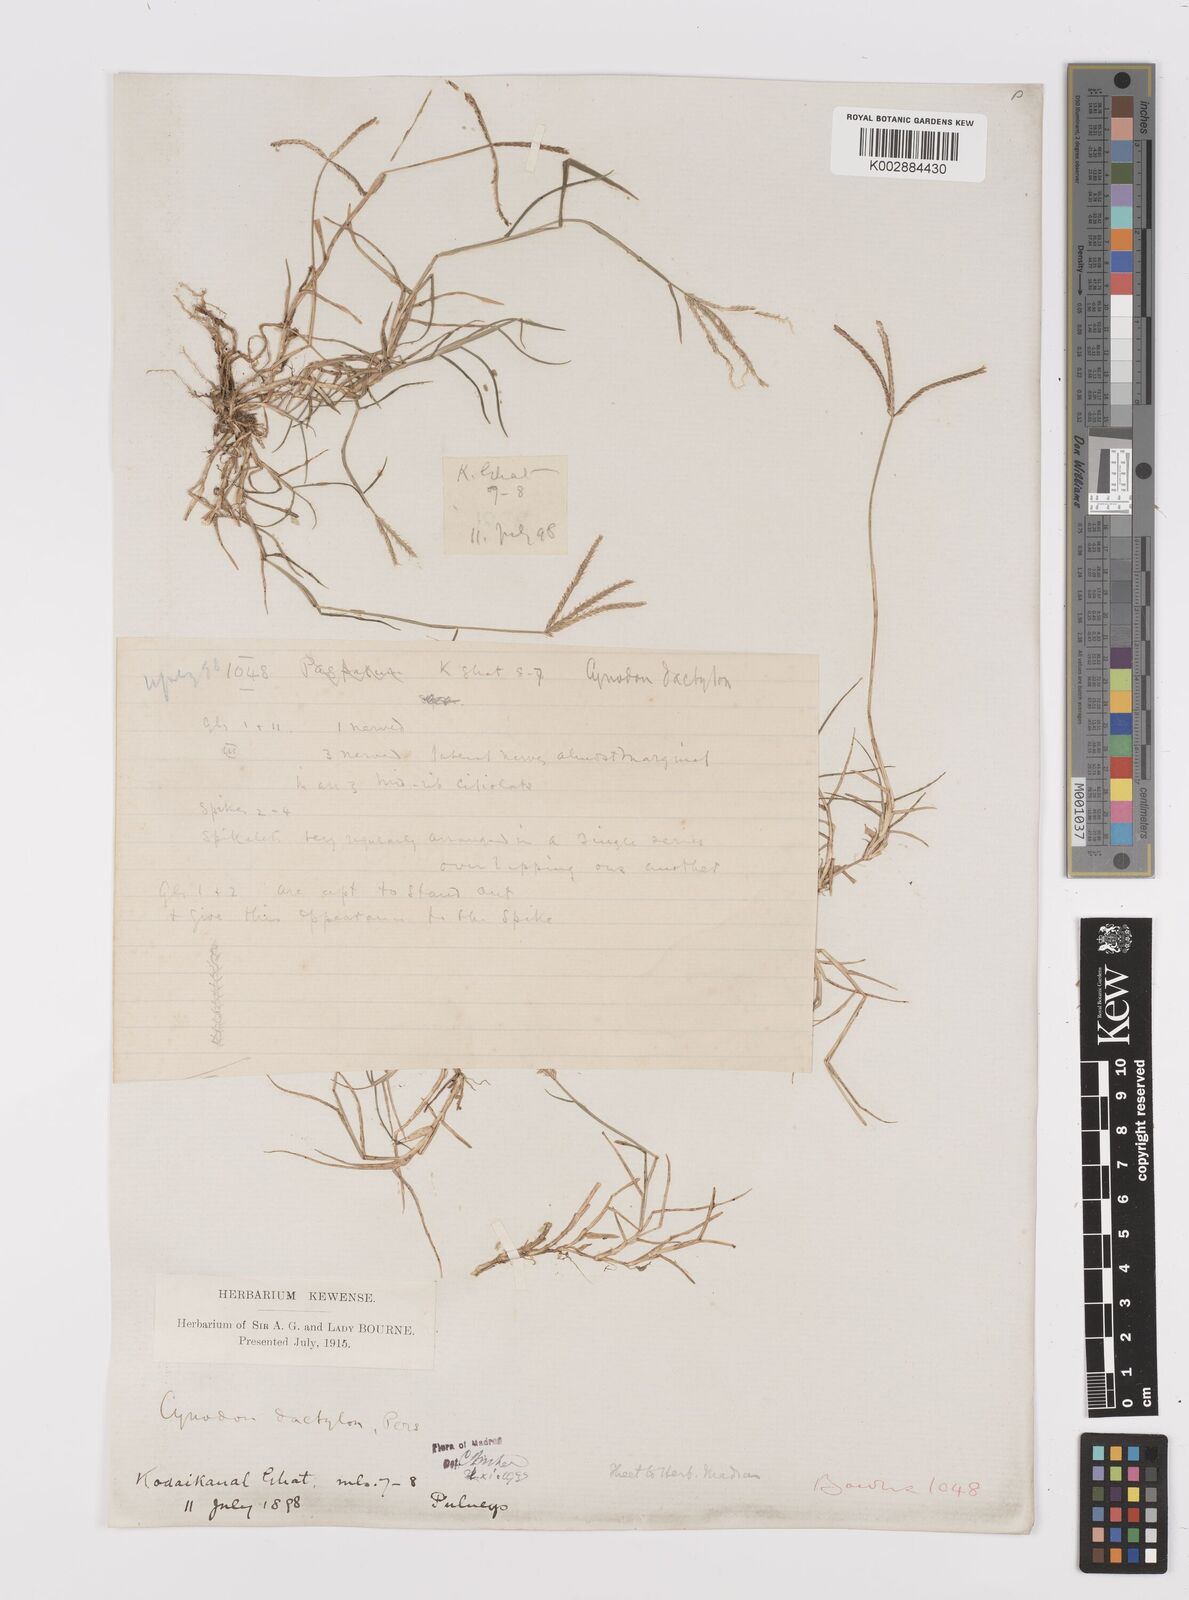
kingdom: Plantae
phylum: Tracheophyta
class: Liliopsida
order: Poales
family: Poaceae
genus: Cynodon
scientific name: Cynodon dactylon
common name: Bermuda grass
